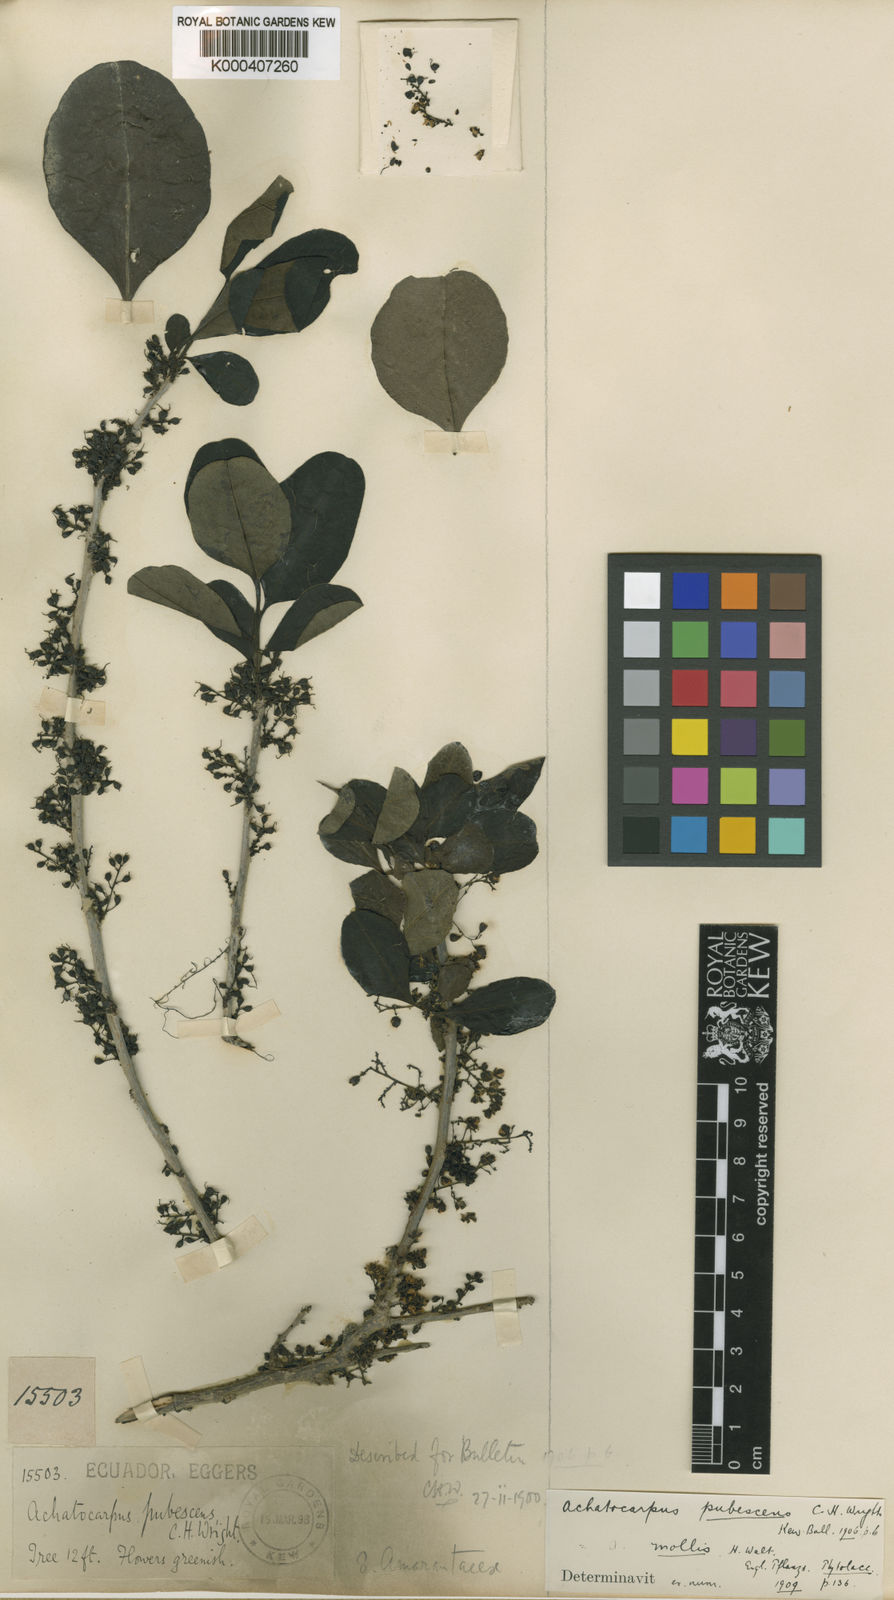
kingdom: Plantae
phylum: Tracheophyta
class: Magnoliopsida
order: Caryophyllales
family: Achatocarpaceae
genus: Achatocarpus
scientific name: Achatocarpus pubescens
